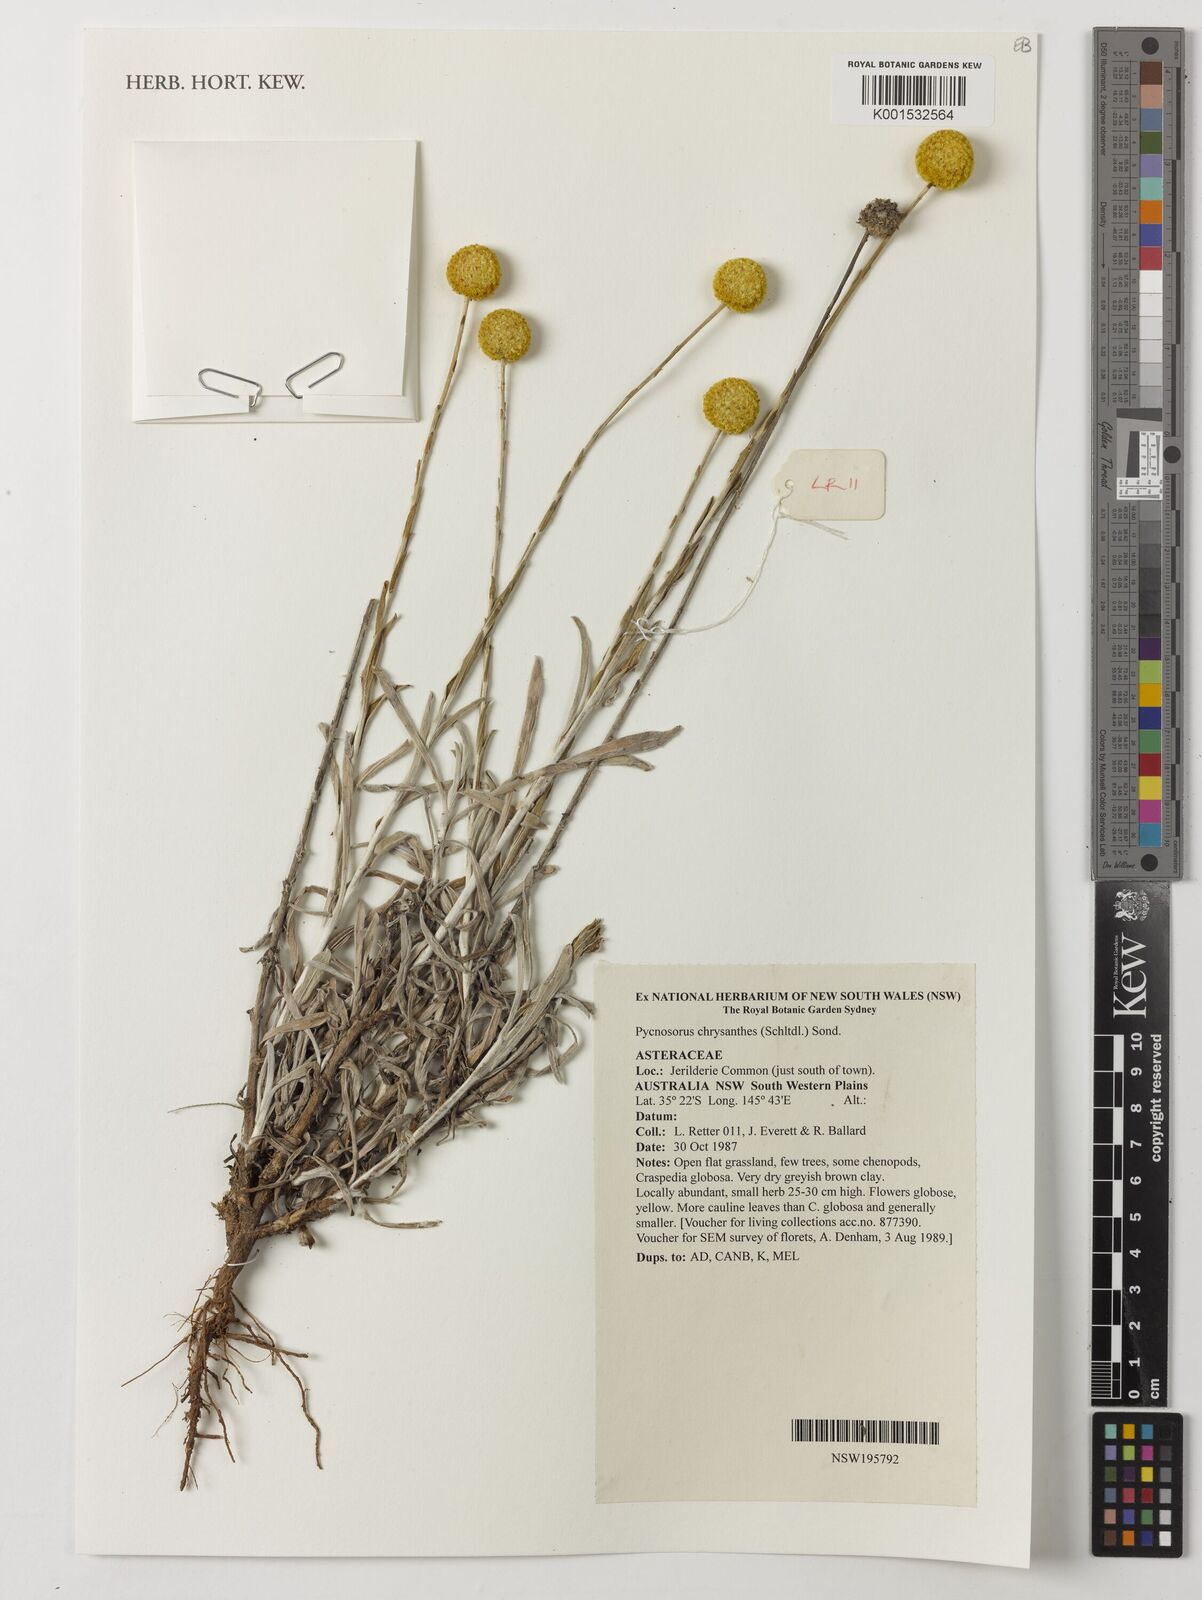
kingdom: Plantae
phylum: Tracheophyta
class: Magnoliopsida
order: Asterales
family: Asteraceae
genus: Pycnosorus
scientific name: Pycnosorus chrysanthus
